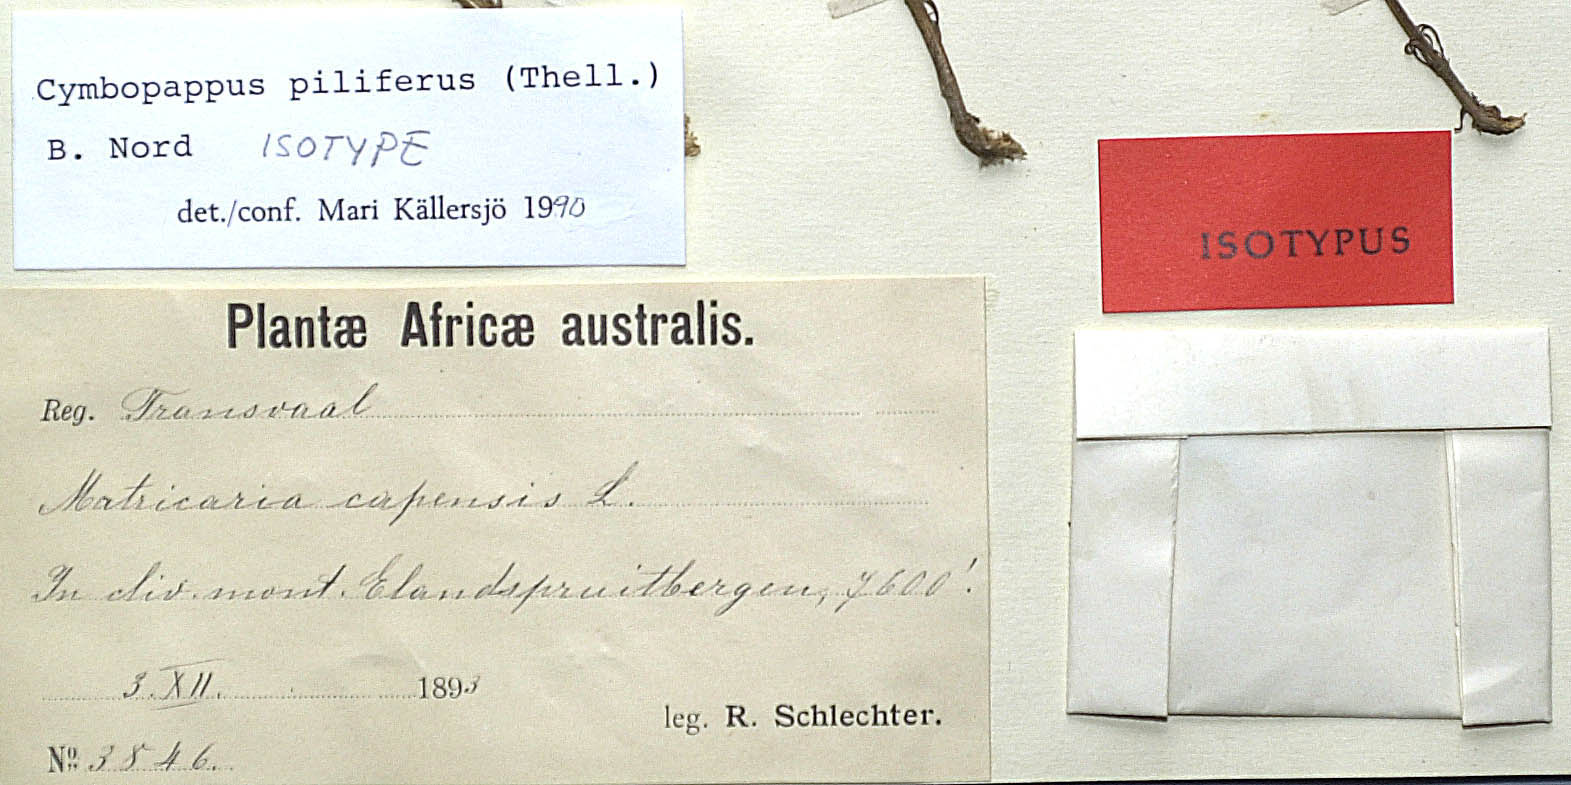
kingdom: Plantae
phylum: Tracheophyta
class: Magnoliopsida
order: Asterales
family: Asteraceae
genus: Cymbopappus
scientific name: Cymbopappus piliferus
